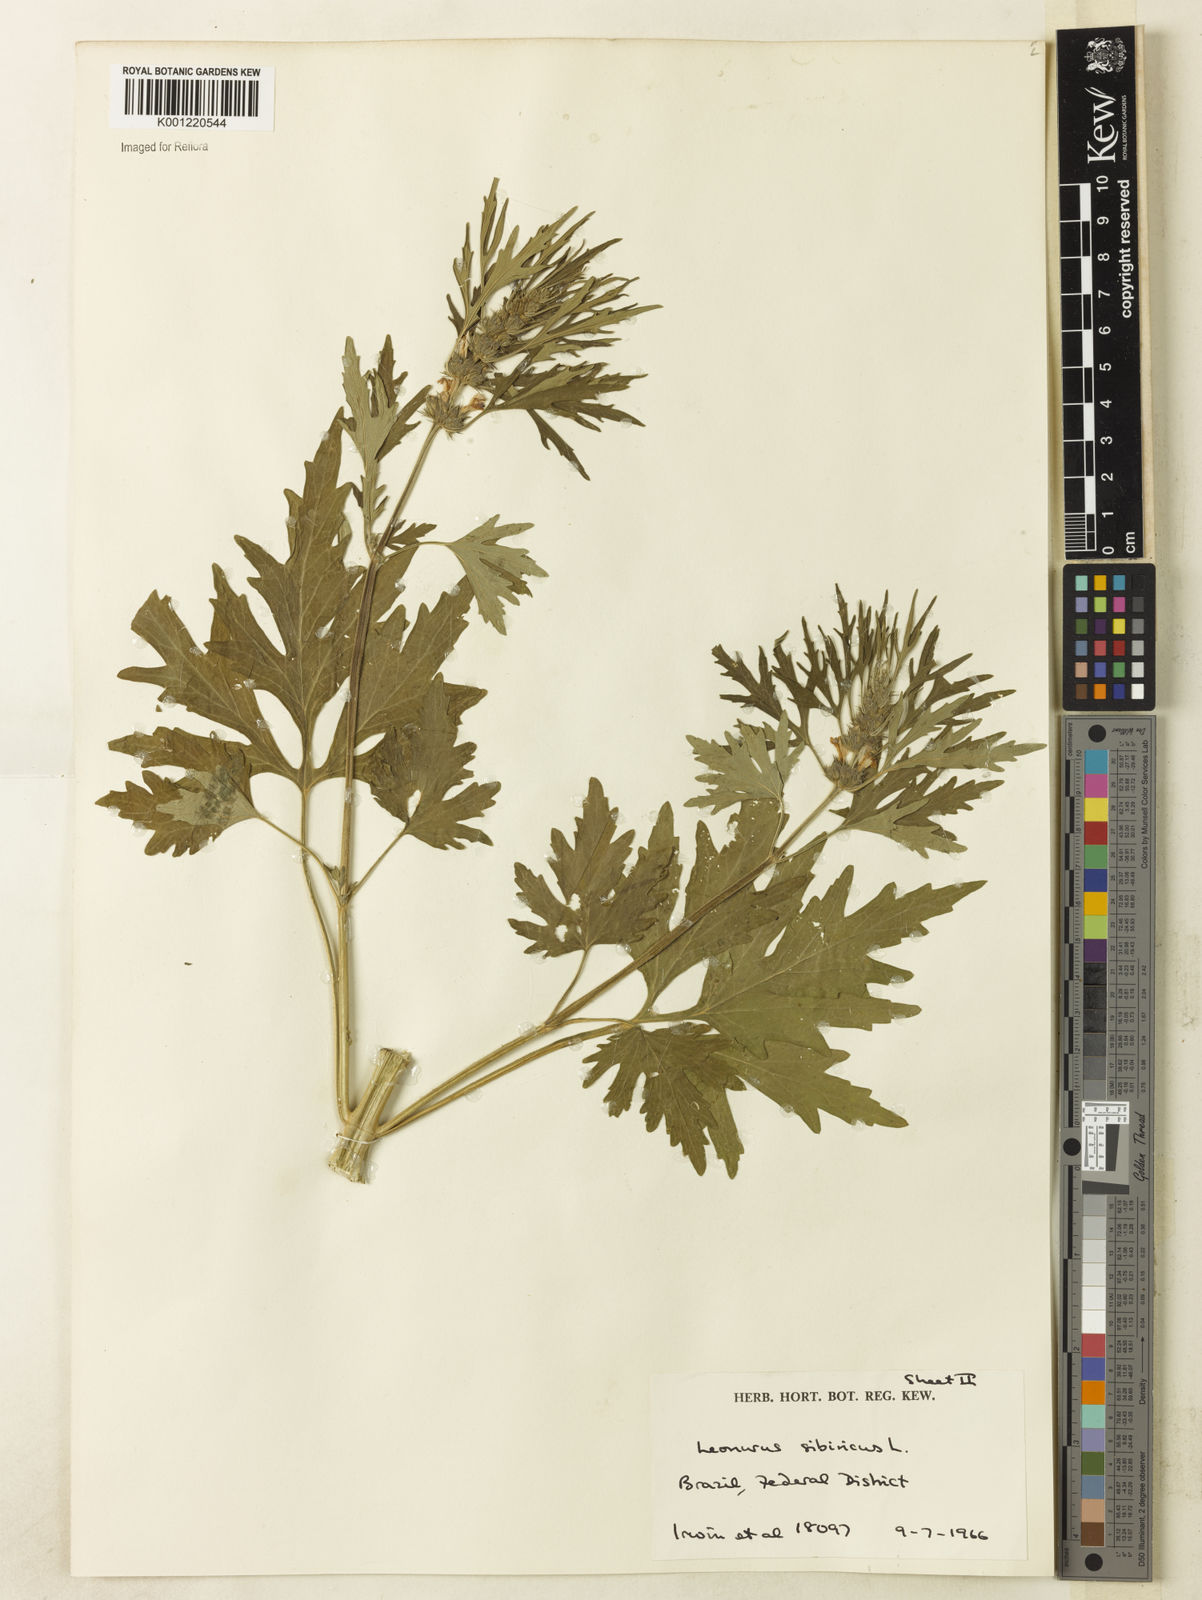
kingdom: Plantae
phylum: Tracheophyta
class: Magnoliopsida
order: Lamiales
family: Lamiaceae
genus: Leonurus
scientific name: Leonurus japonicus
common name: Honeyweed
